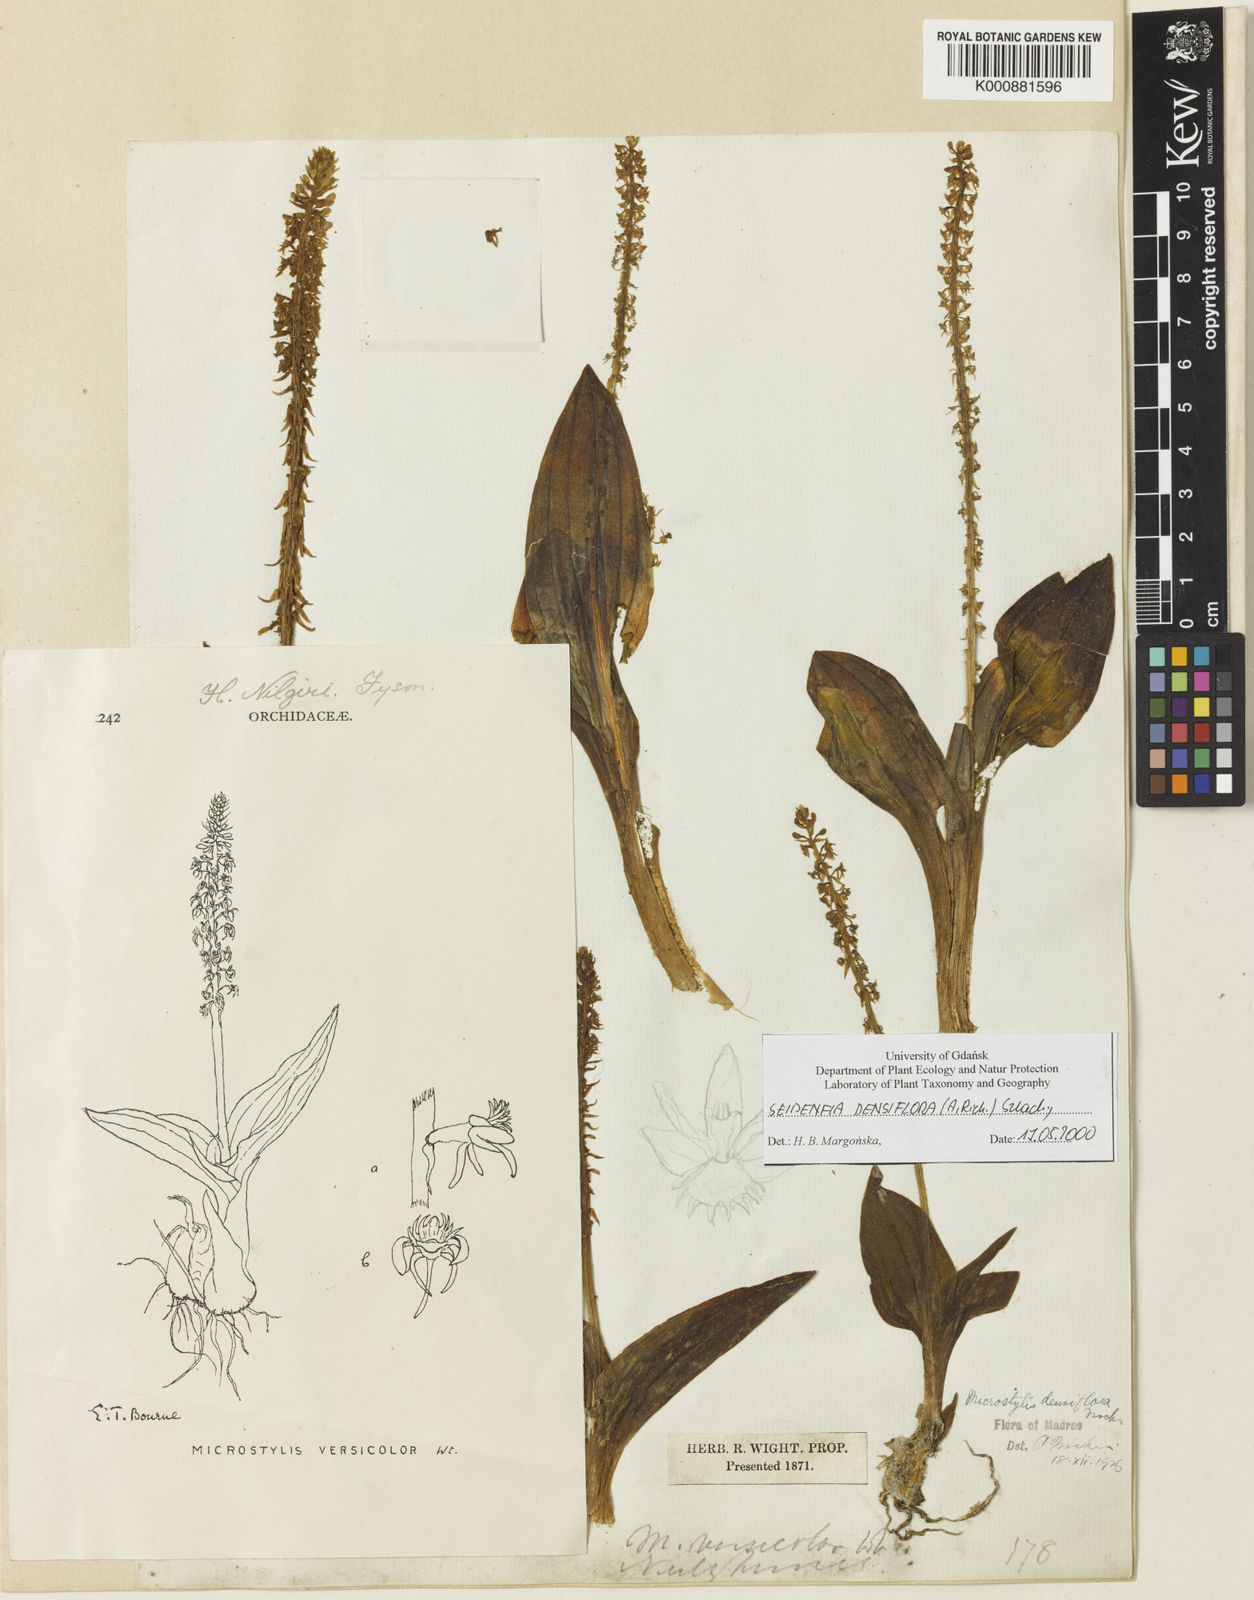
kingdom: Plantae
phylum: Tracheophyta
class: Liliopsida
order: Asparagales
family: Orchidaceae
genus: Malaxis
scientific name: Malaxis densiflora
